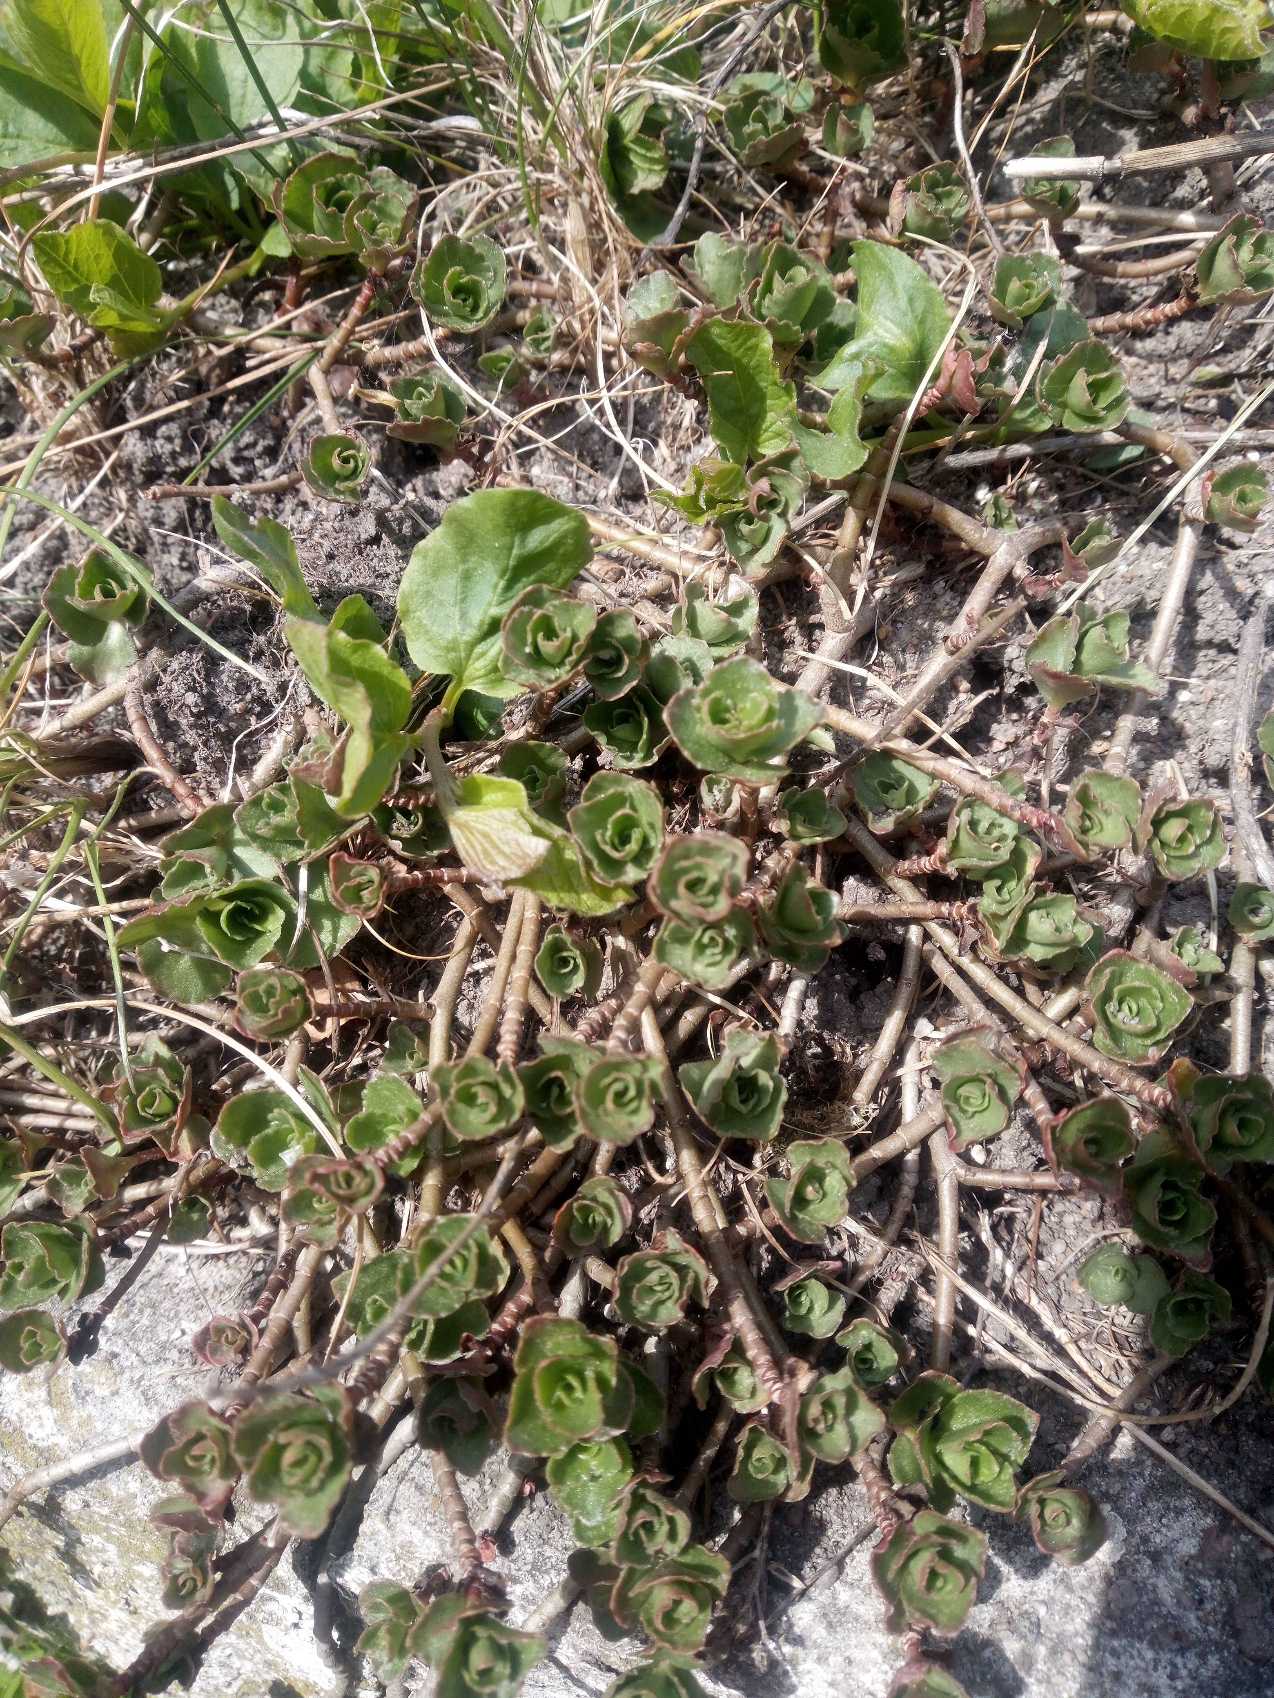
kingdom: Plantae
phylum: Tracheophyta
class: Magnoliopsida
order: Saxifragales
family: Crassulaceae
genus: Phedimus
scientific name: Phedimus spurius
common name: Rød stenurt
